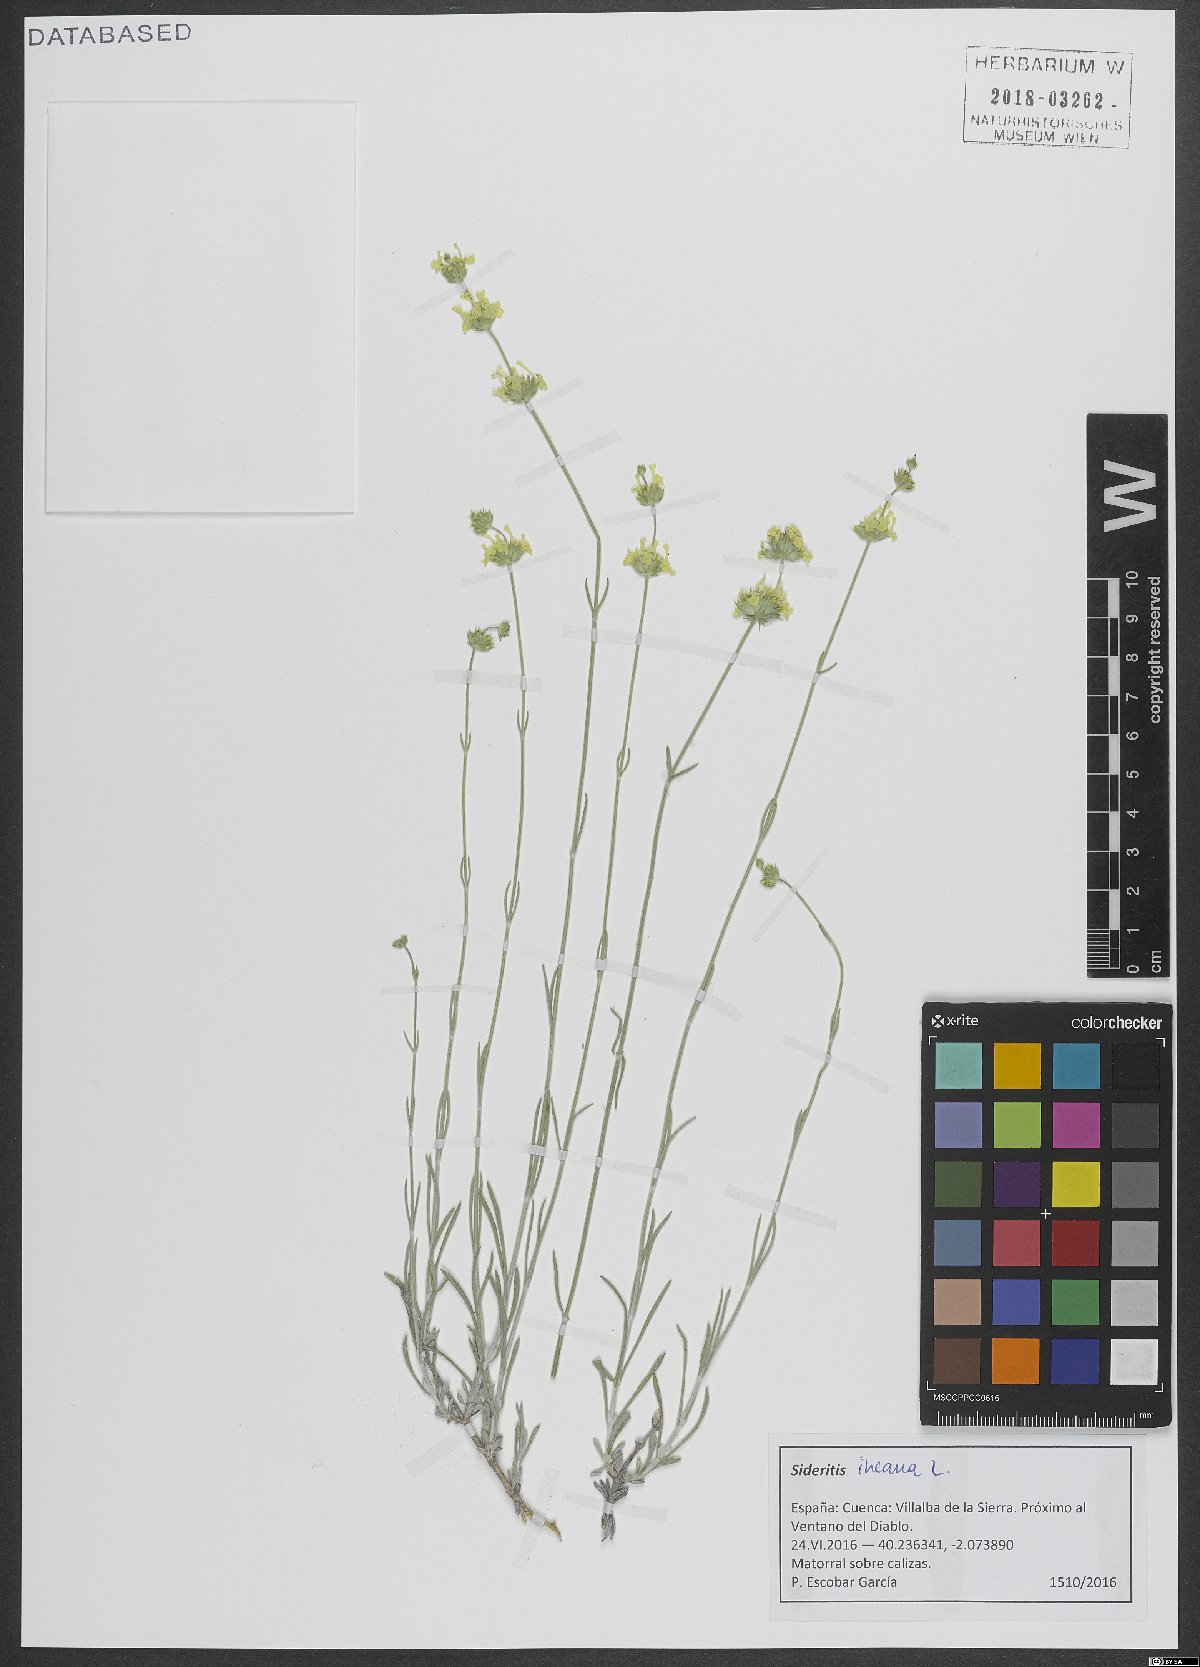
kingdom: Plantae
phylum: Tracheophyta
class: Magnoliopsida
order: Lamiales
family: Lamiaceae
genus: Sideritis
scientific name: Sideritis incana
